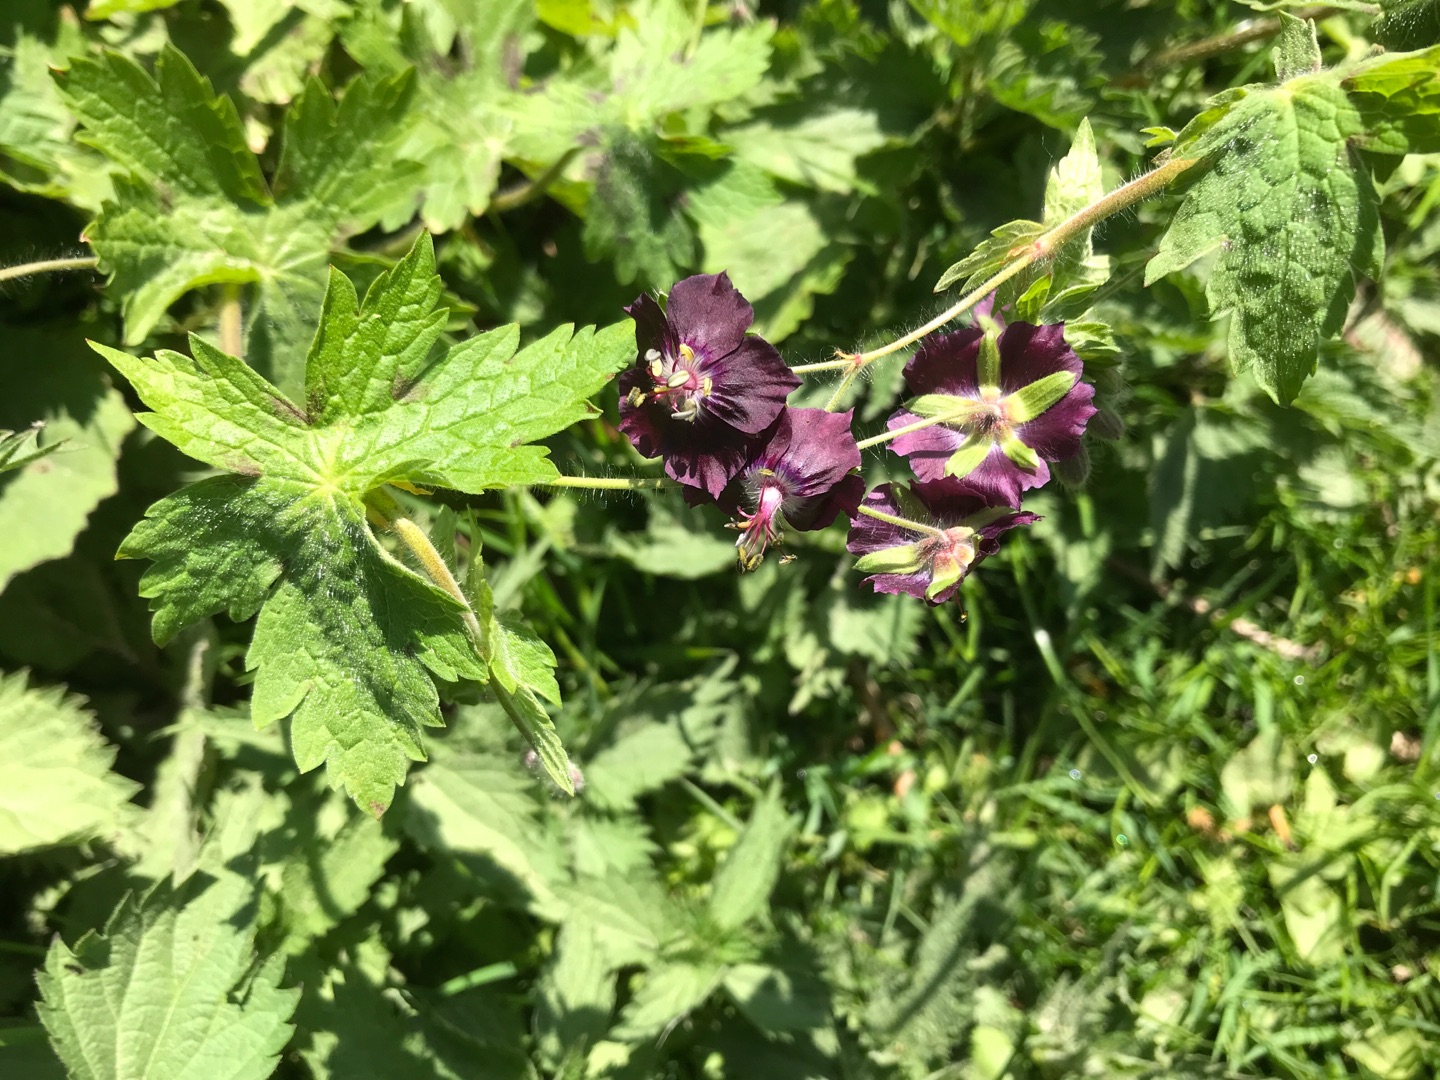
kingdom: Plantae
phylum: Tracheophyta
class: Magnoliopsida
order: Geraniales
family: Geraniaceae
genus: Geranium
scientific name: Geranium phaeum
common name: Bølgekronet storkenæb
